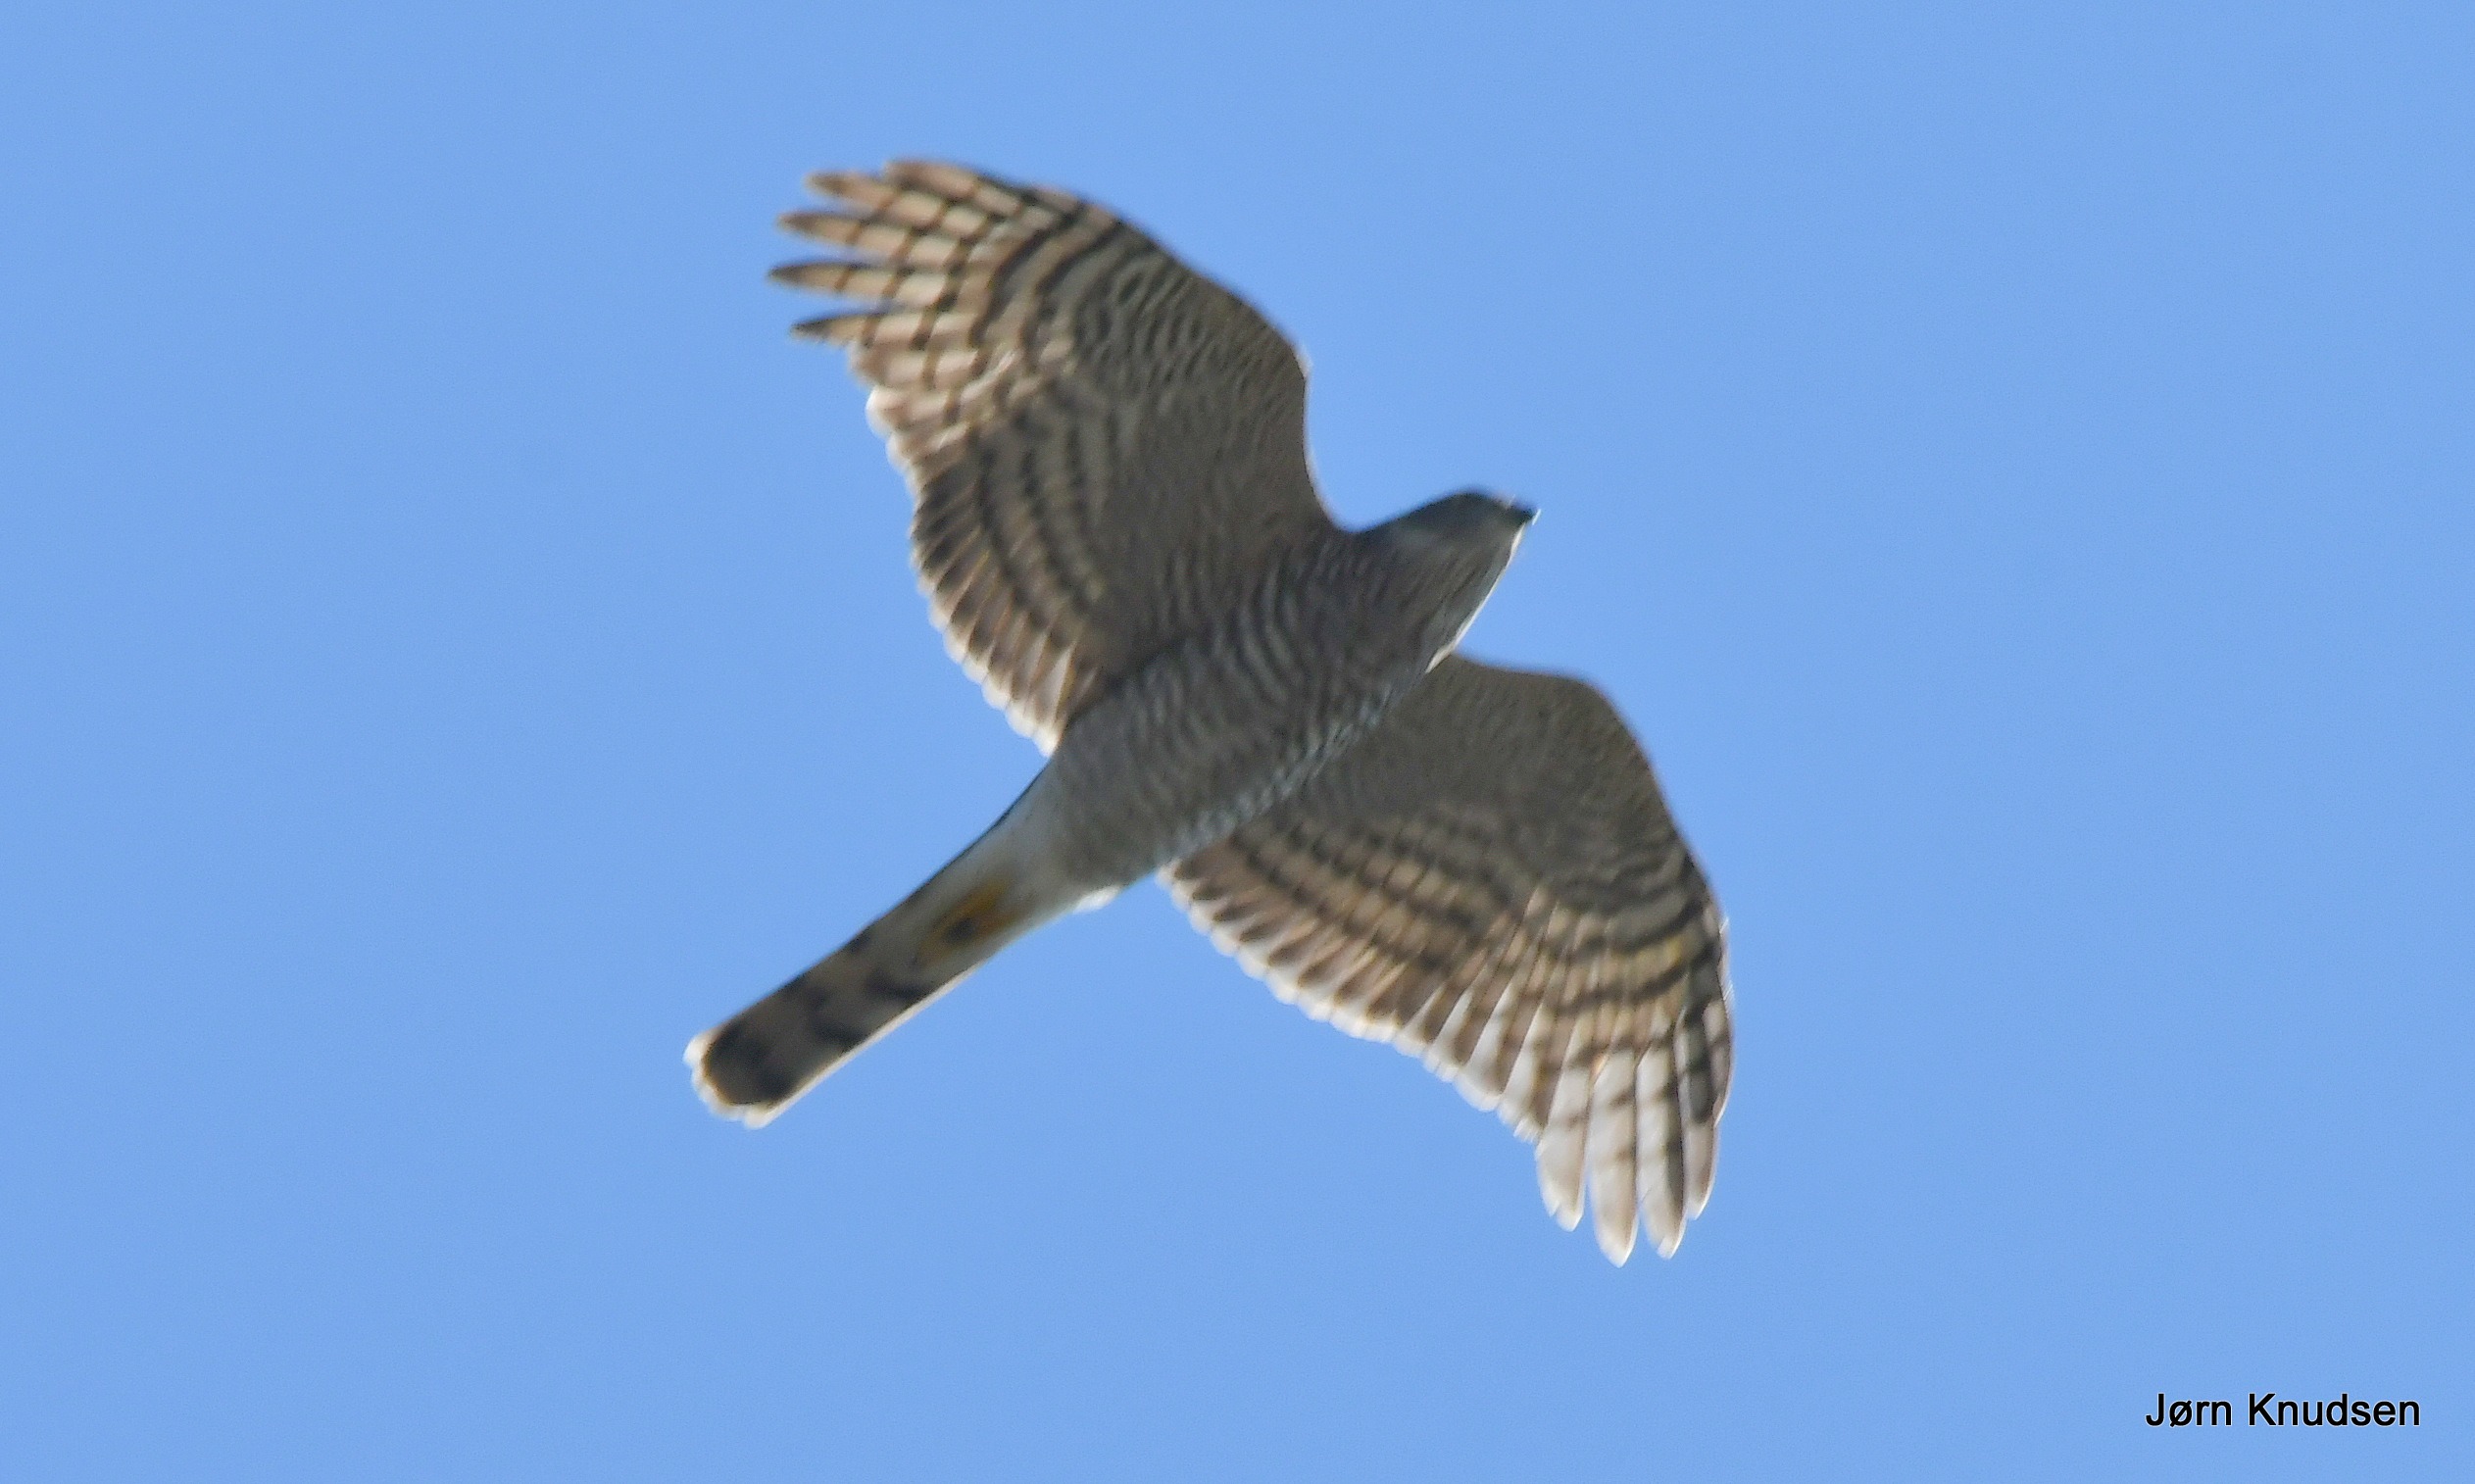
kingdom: Animalia
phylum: Chordata
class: Aves
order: Accipitriformes
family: Accipitridae
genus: Accipiter
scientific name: Accipiter nisus
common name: Spurvehøg
